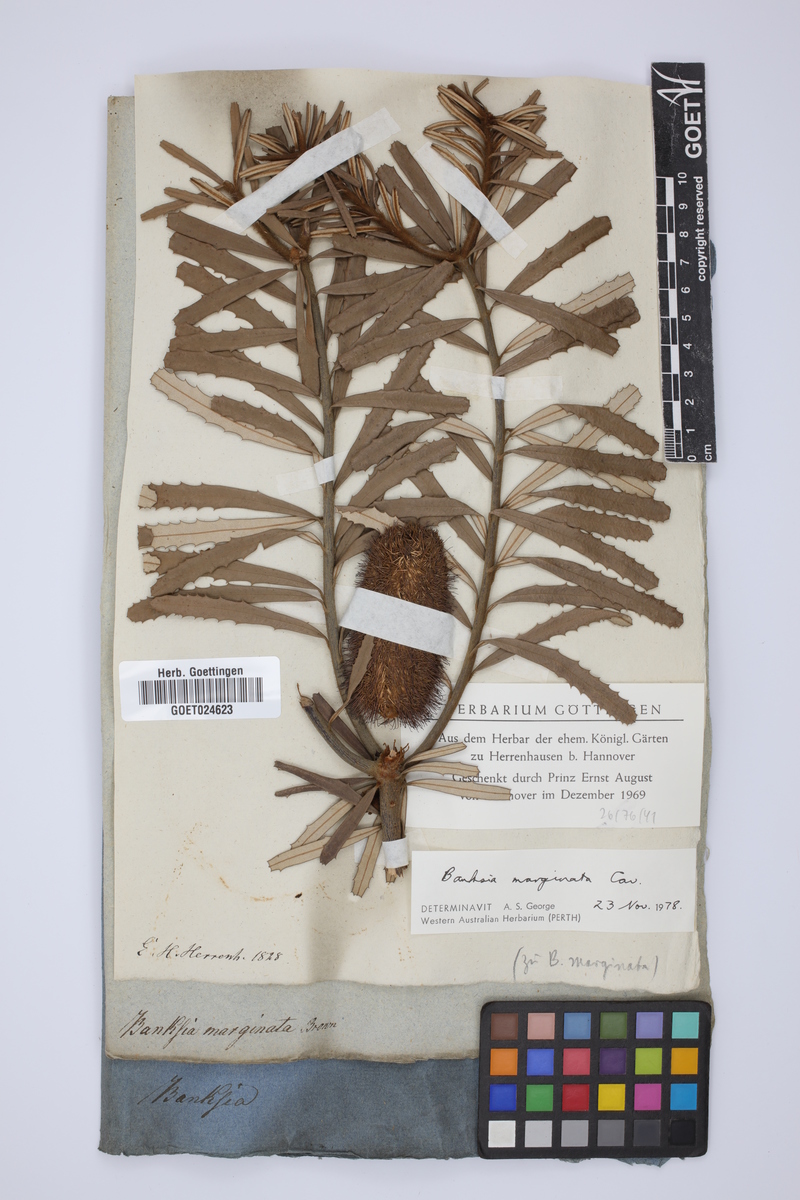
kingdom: Plantae
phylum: Tracheophyta
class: Magnoliopsida
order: Proteales
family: Proteaceae
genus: Banksia
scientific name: Banksia marginata
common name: Silver banksia
